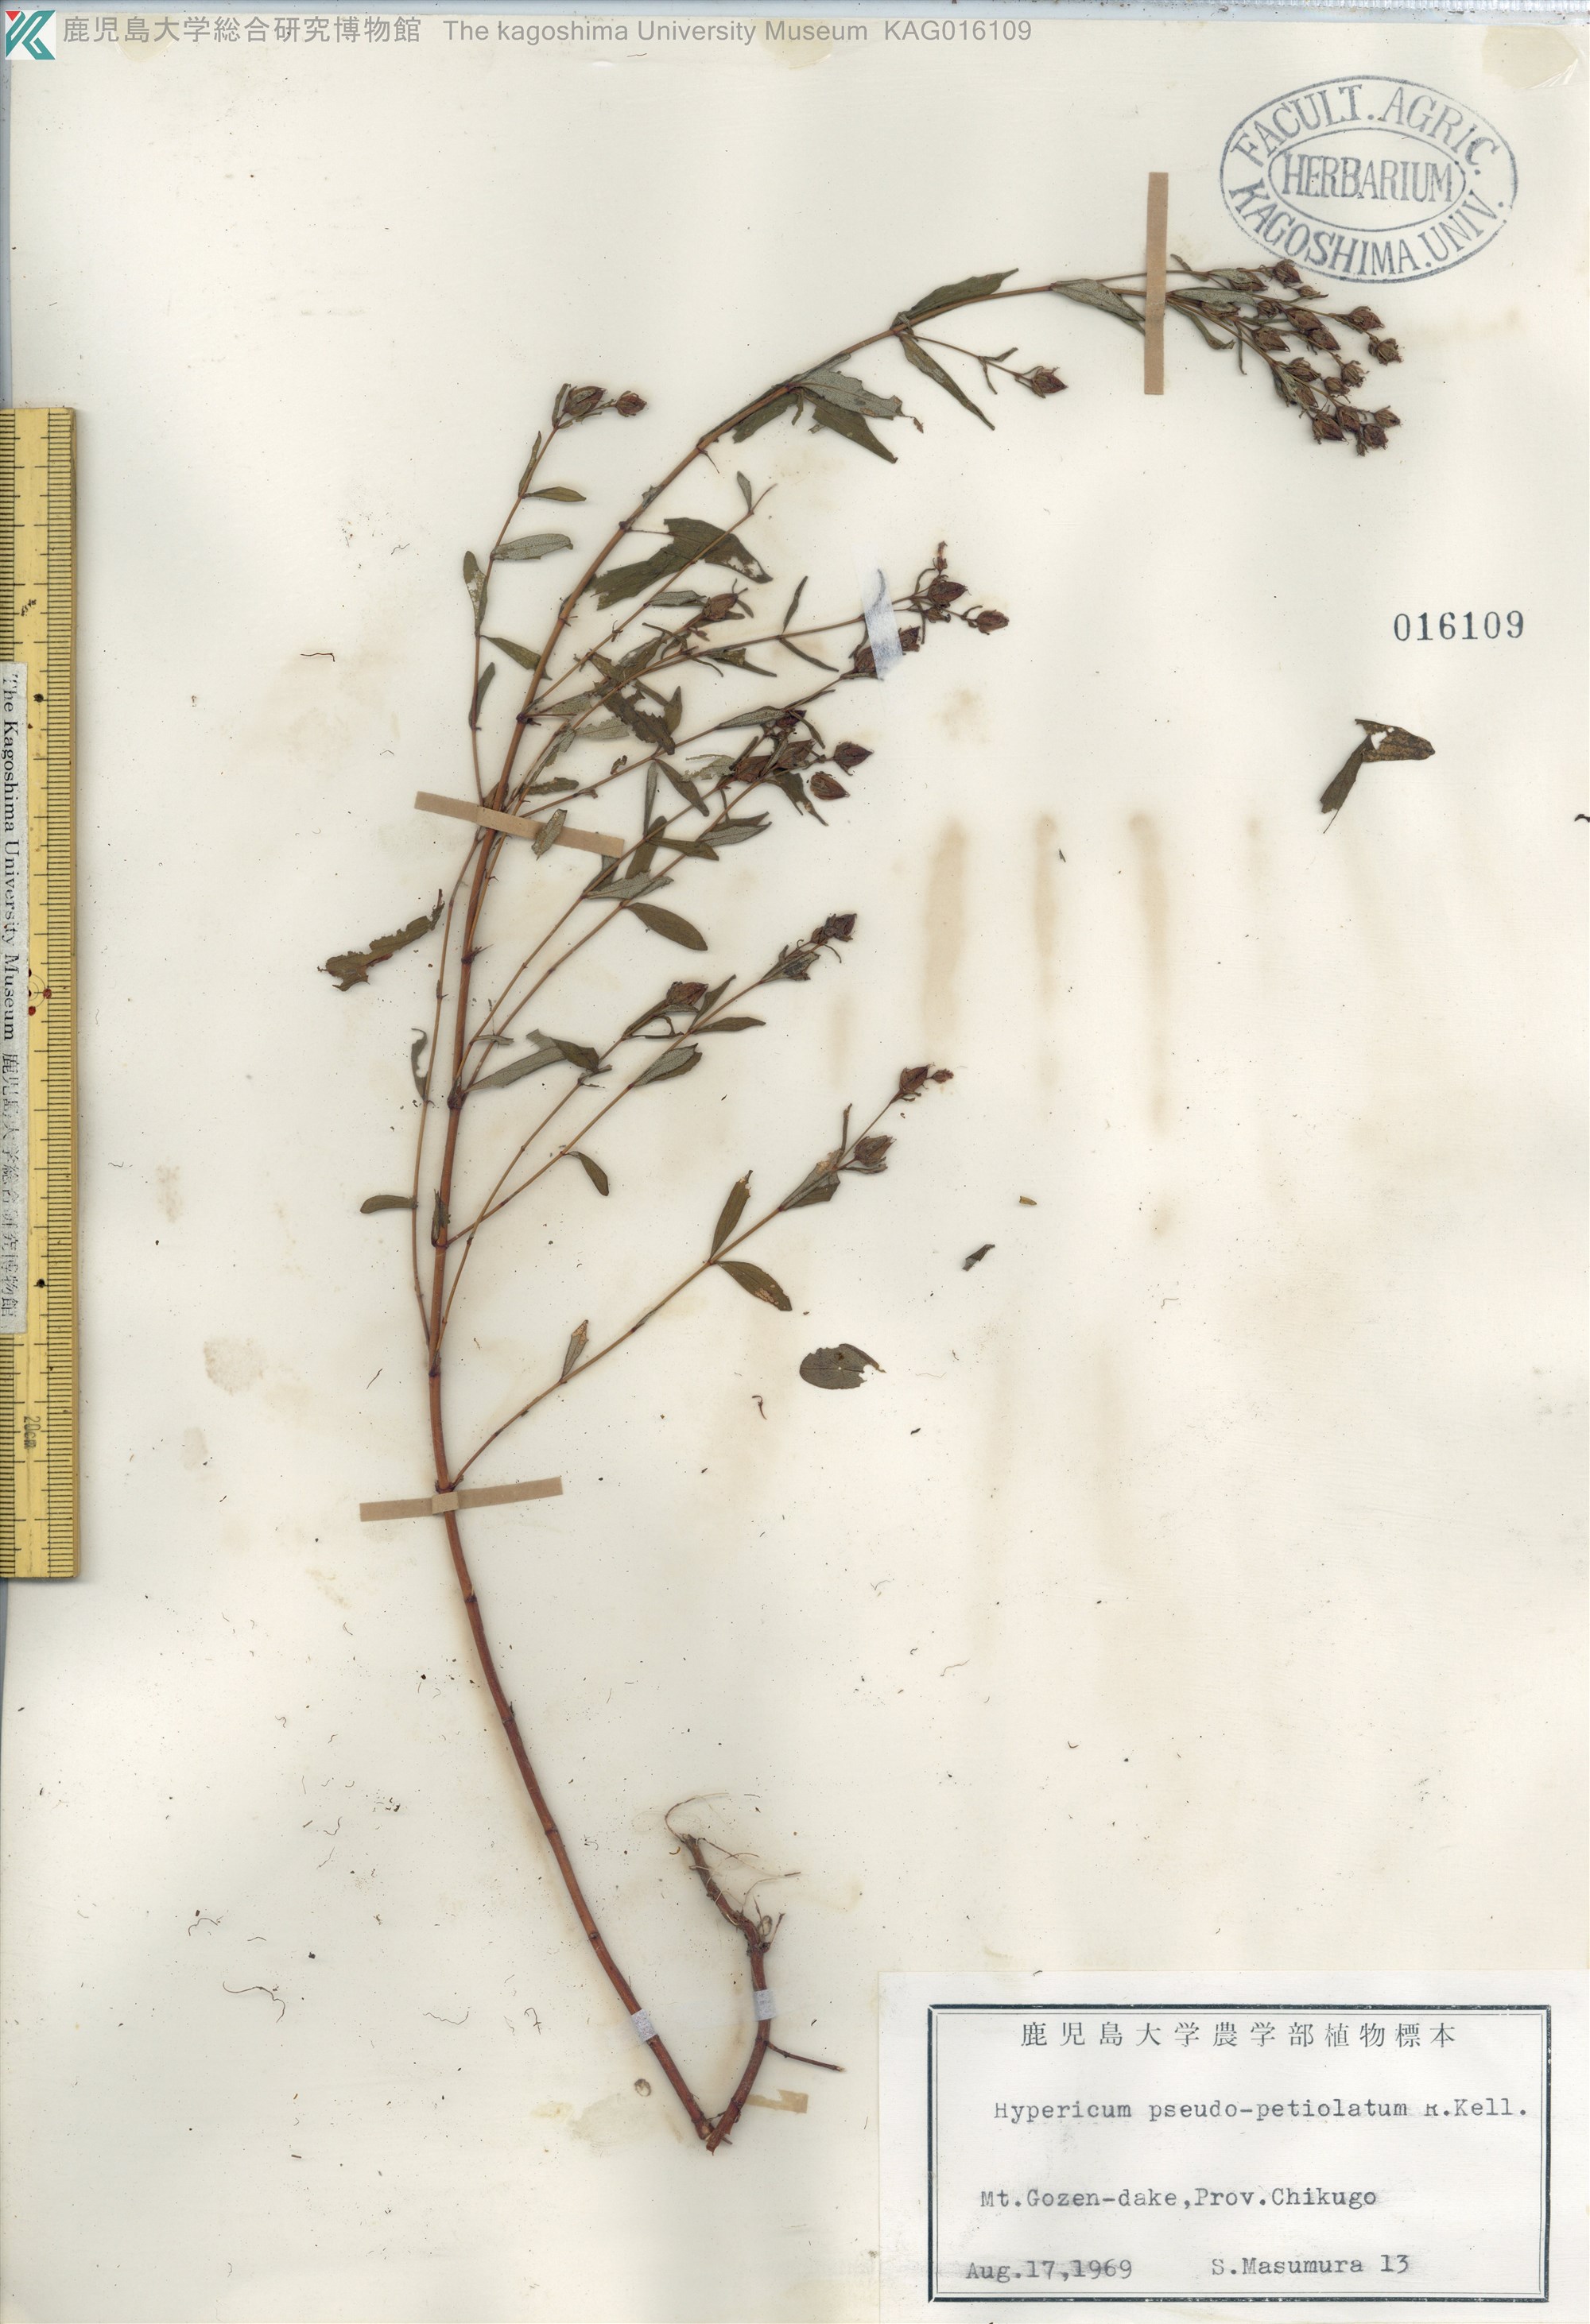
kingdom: Plantae
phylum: Tracheophyta
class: Magnoliopsida
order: Malpighiales
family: Hypericaceae
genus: Hypericum
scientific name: Hypericum pseudopetiolatum
